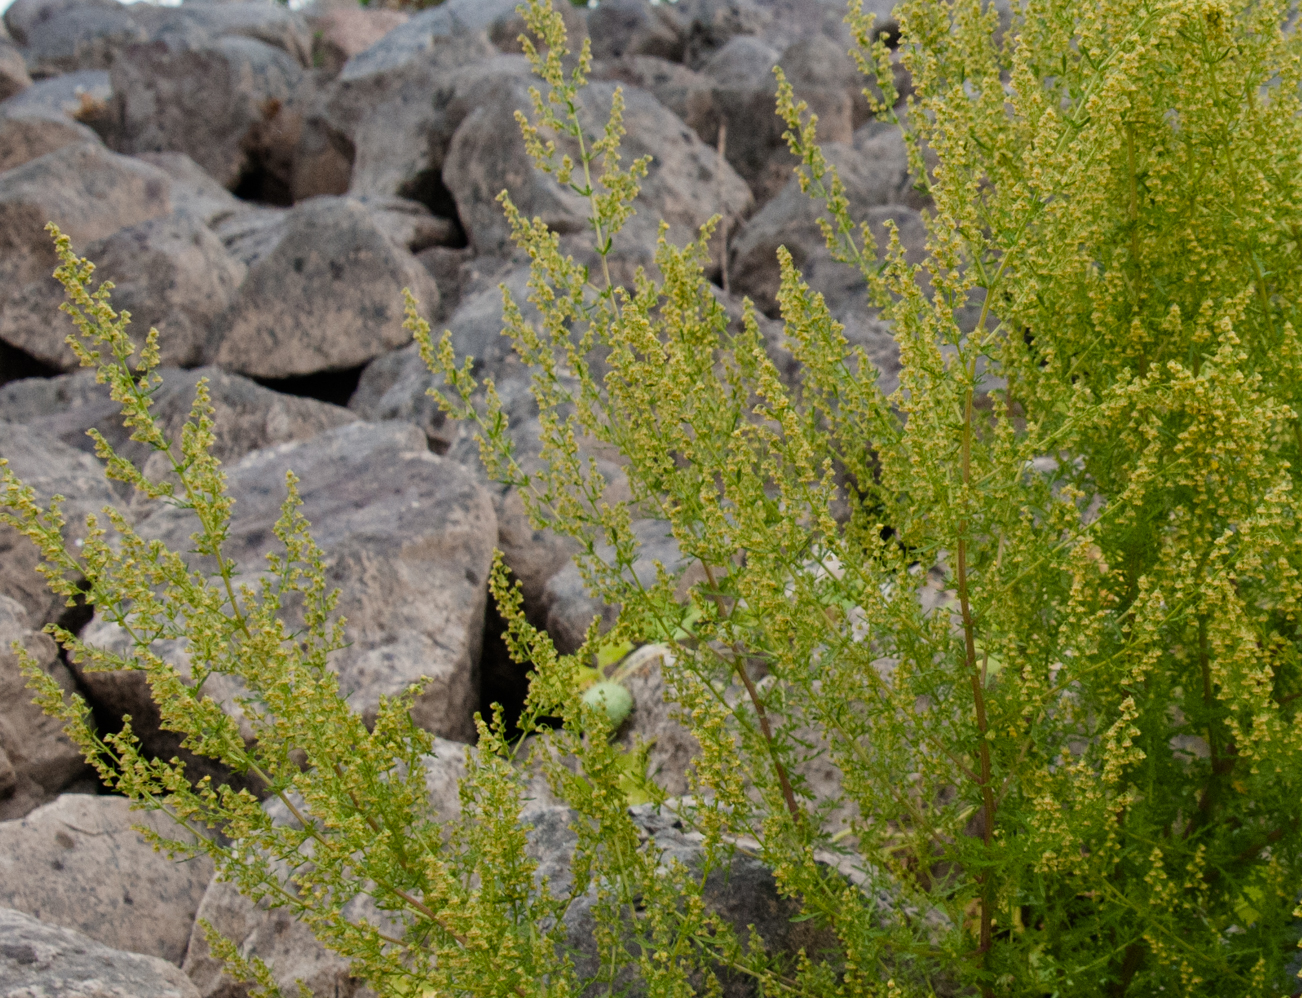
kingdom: Plantae
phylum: Tracheophyta
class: Magnoliopsida
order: Asterales
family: Asteraceae
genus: Artemisia
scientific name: Artemisia annua
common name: Sweet sagewort
